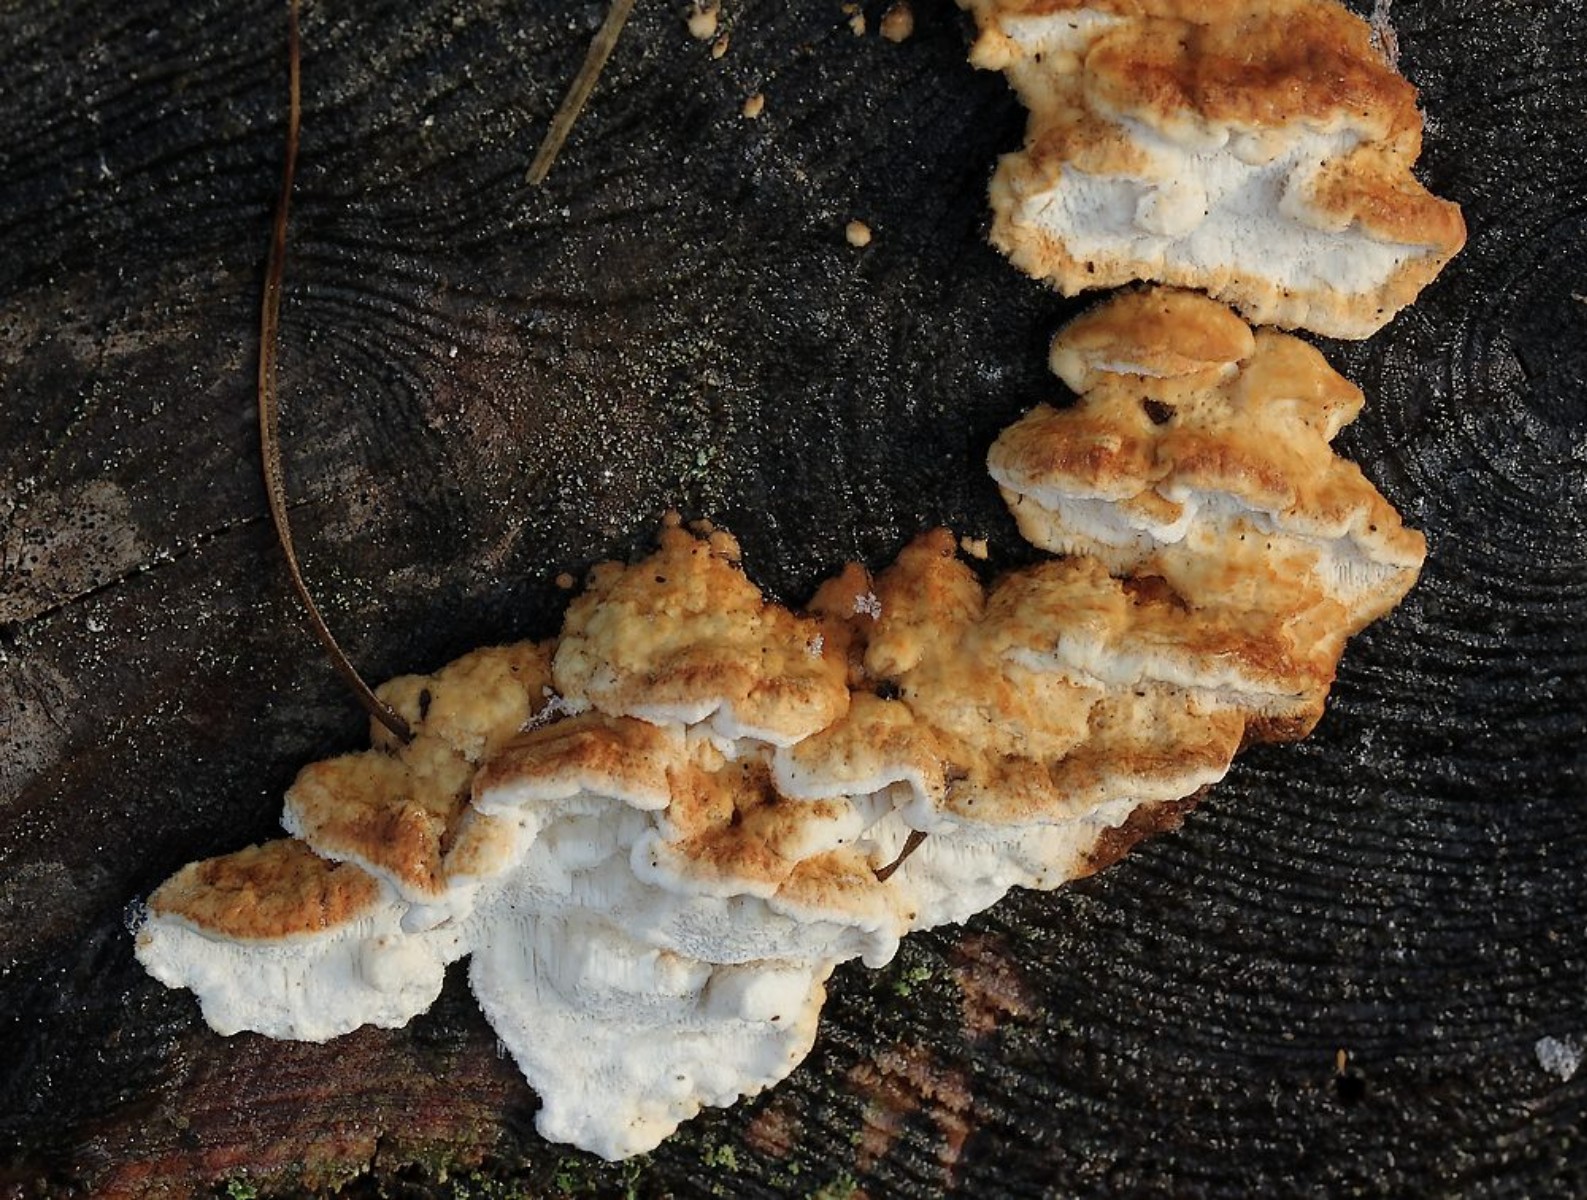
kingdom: Fungi
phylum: Basidiomycota
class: Agaricomycetes
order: Polyporales
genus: Fuscopostia
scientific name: Fuscopostia fragilis
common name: brunende kødporesvamp
